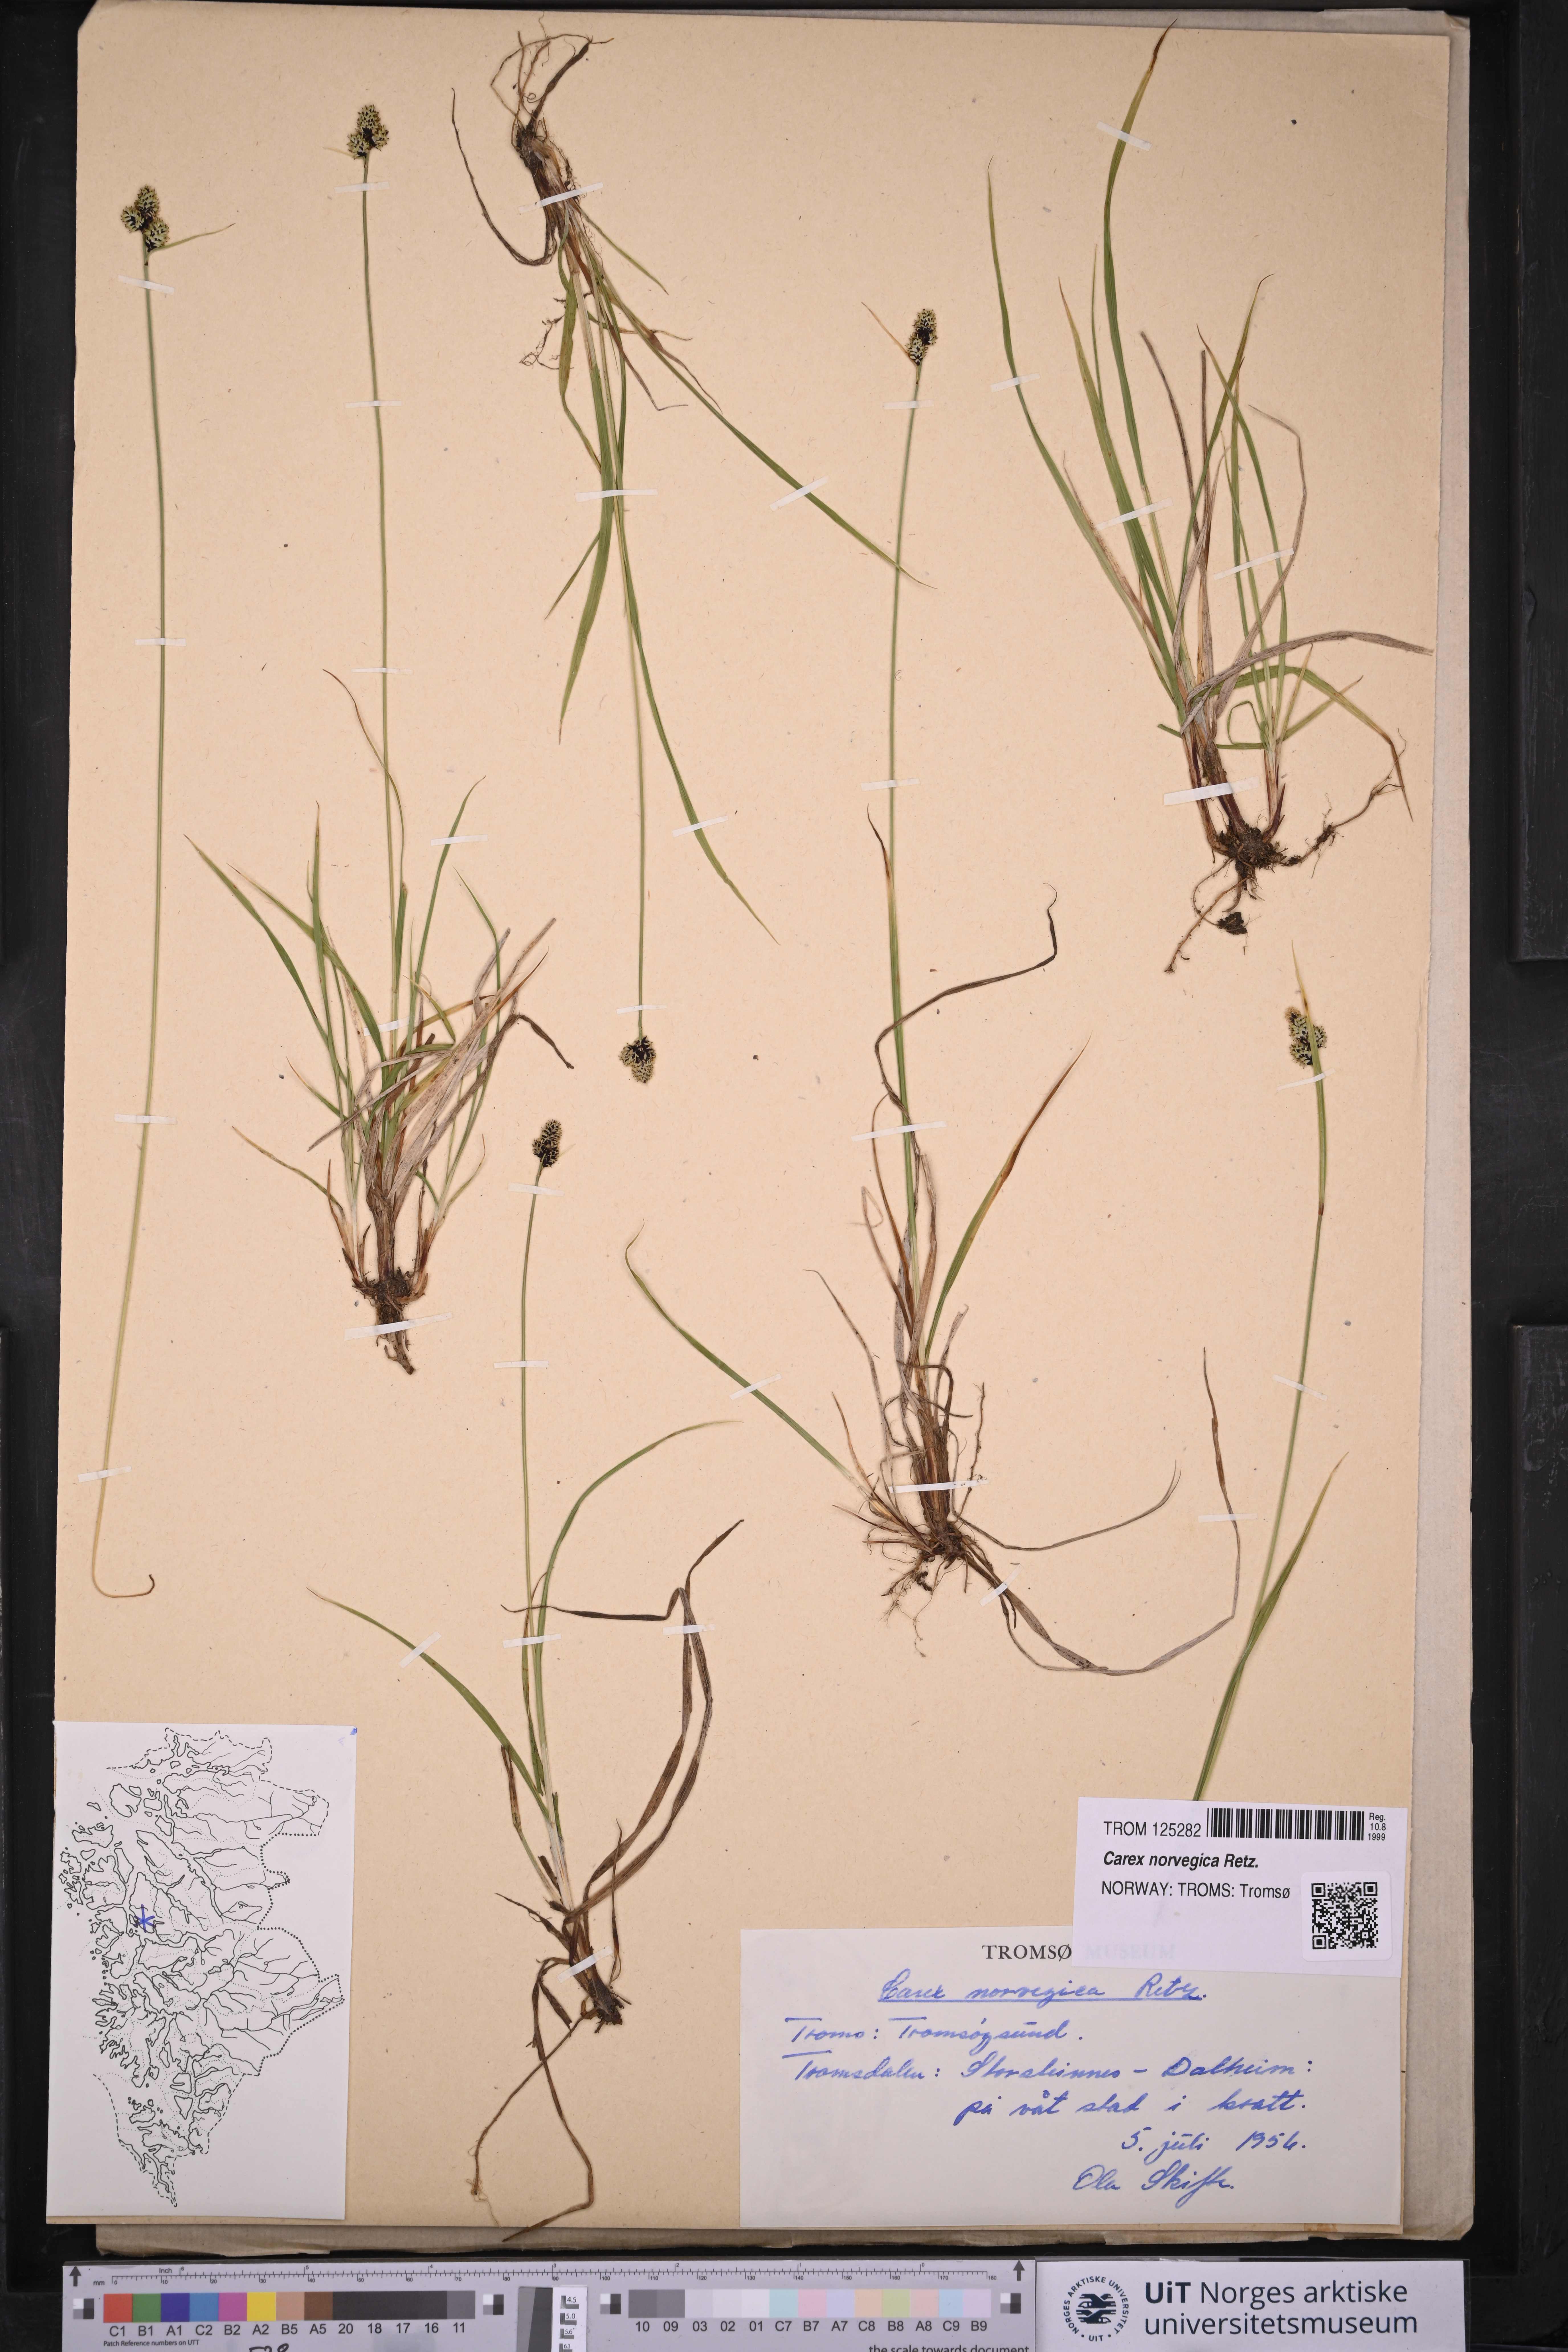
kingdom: Plantae
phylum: Tracheophyta
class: Liliopsida
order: Poales
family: Cyperaceae
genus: Carex
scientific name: Carex norvegica
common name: Close-headed alpine-sedge
